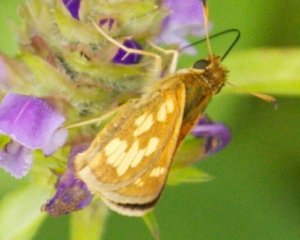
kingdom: Animalia
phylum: Arthropoda
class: Insecta
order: Lepidoptera
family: Hesperiidae
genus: Polites
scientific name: Polites coras
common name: Peck's Skipper
